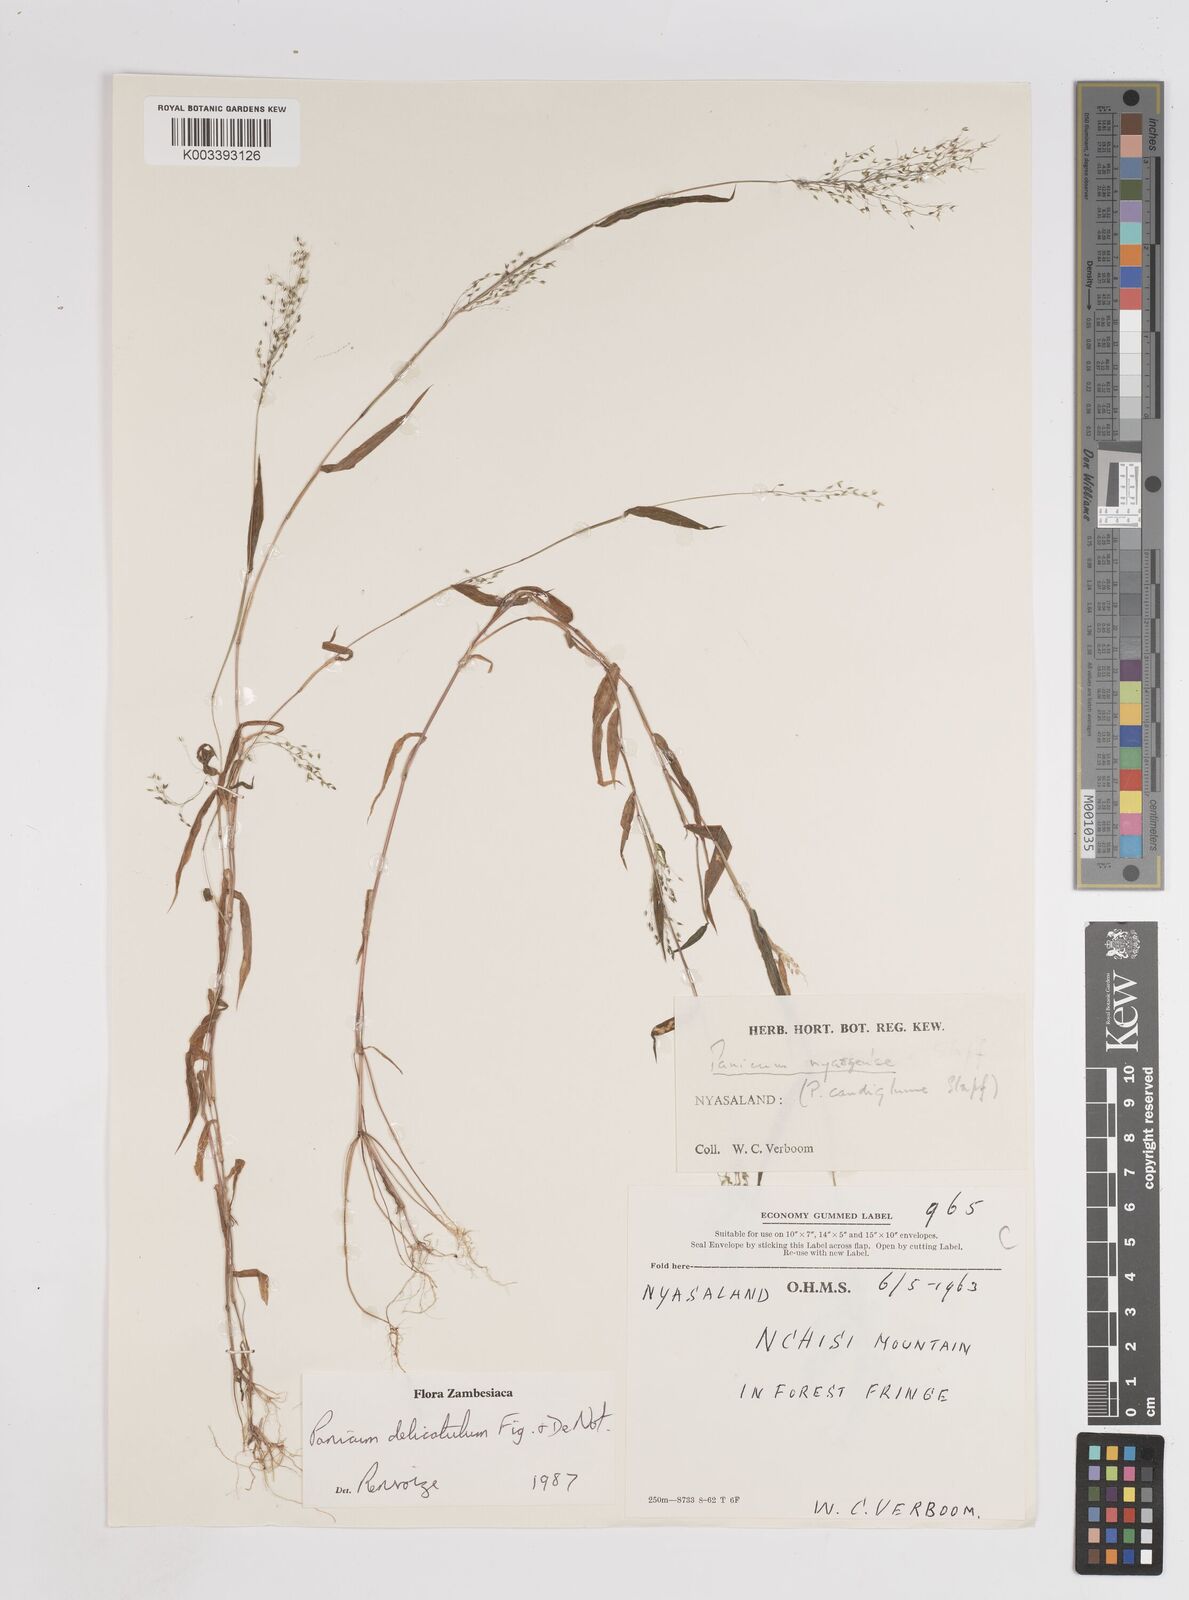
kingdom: Plantae
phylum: Tracheophyta
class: Liliopsida
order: Poales
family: Poaceae
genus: Panicum
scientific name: Panicum delicatulum
